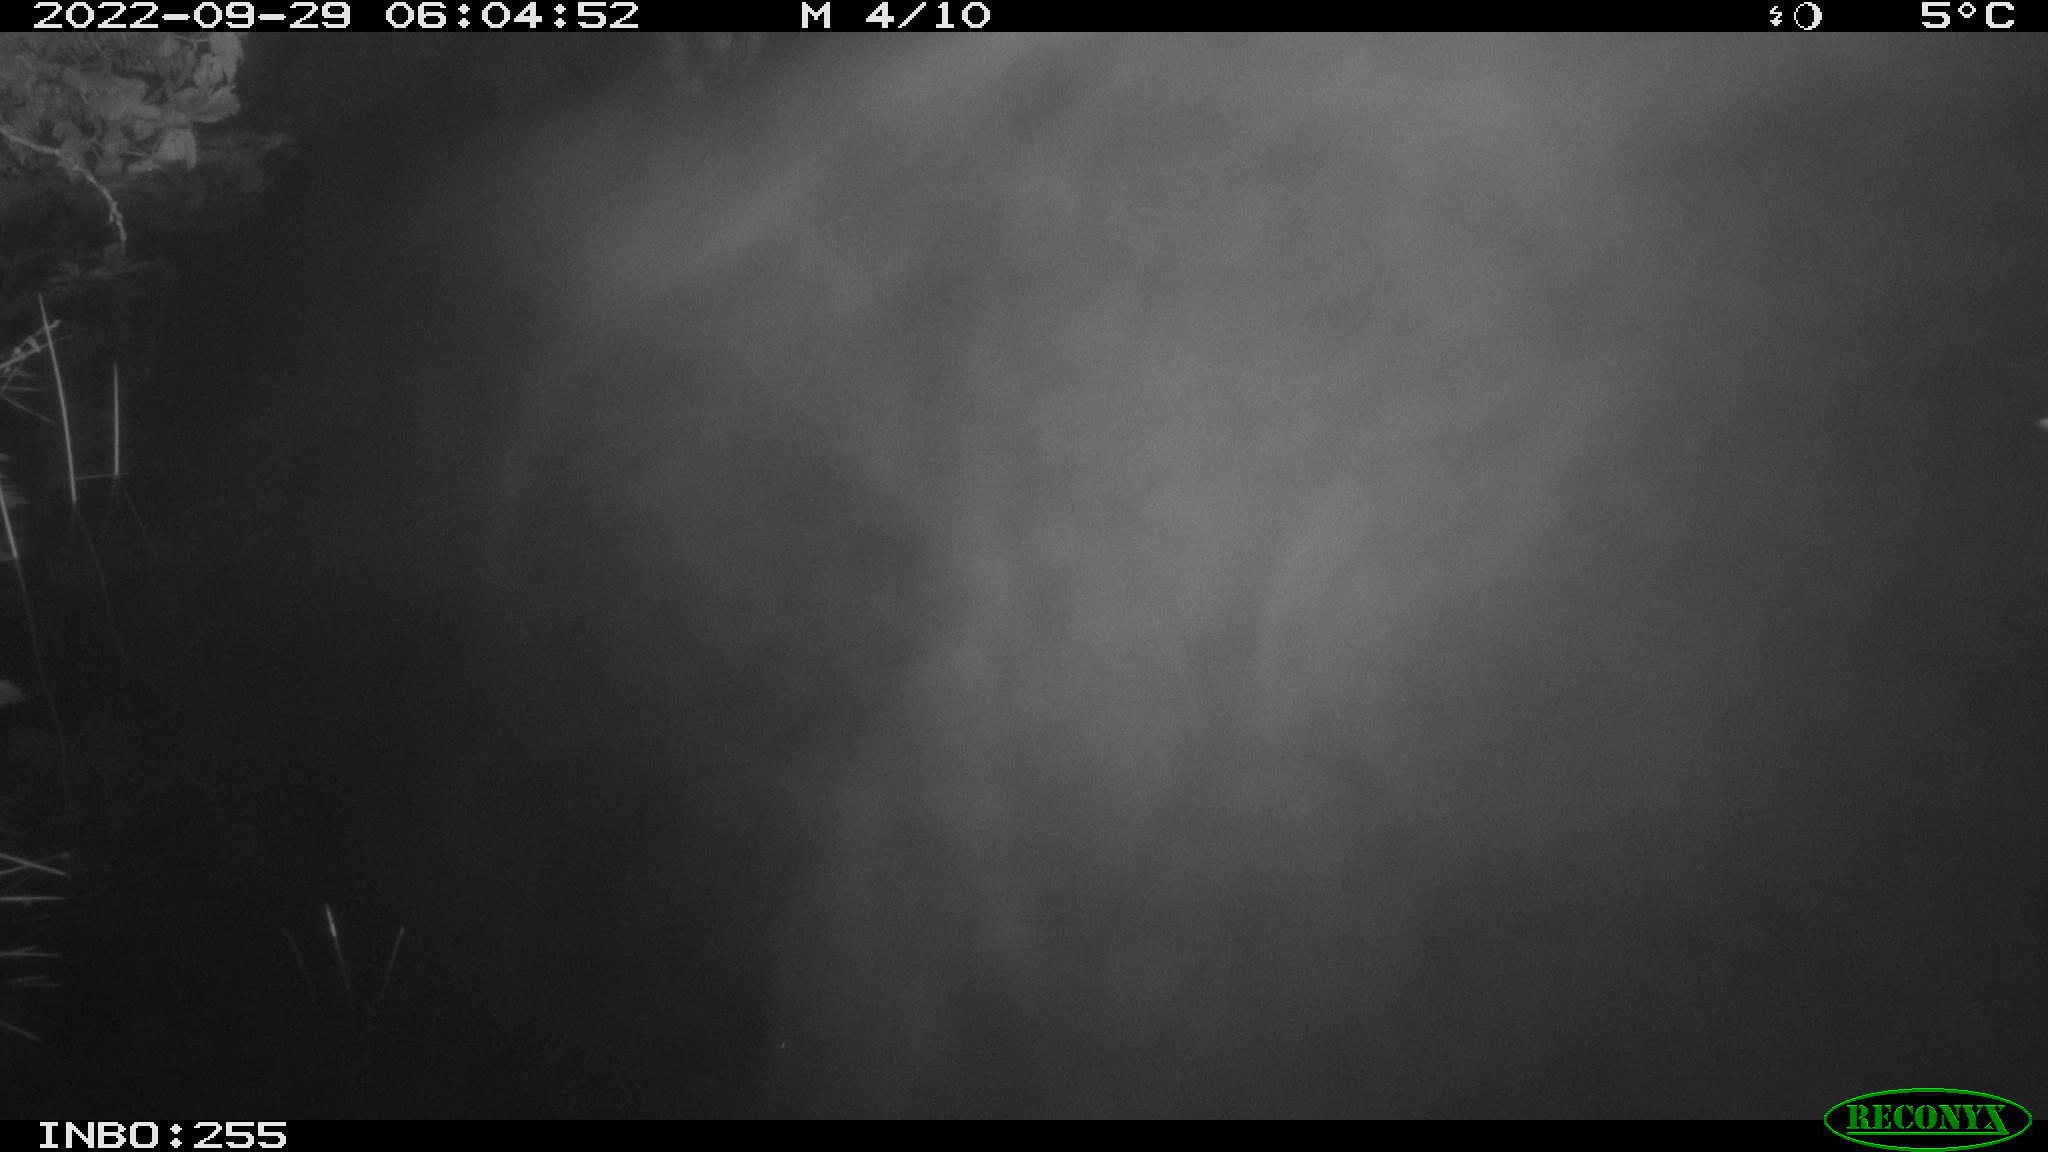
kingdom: Animalia
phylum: Chordata
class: Aves
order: Anseriformes
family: Anatidae
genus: Anas
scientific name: Anas platyrhynchos
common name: Mallard
